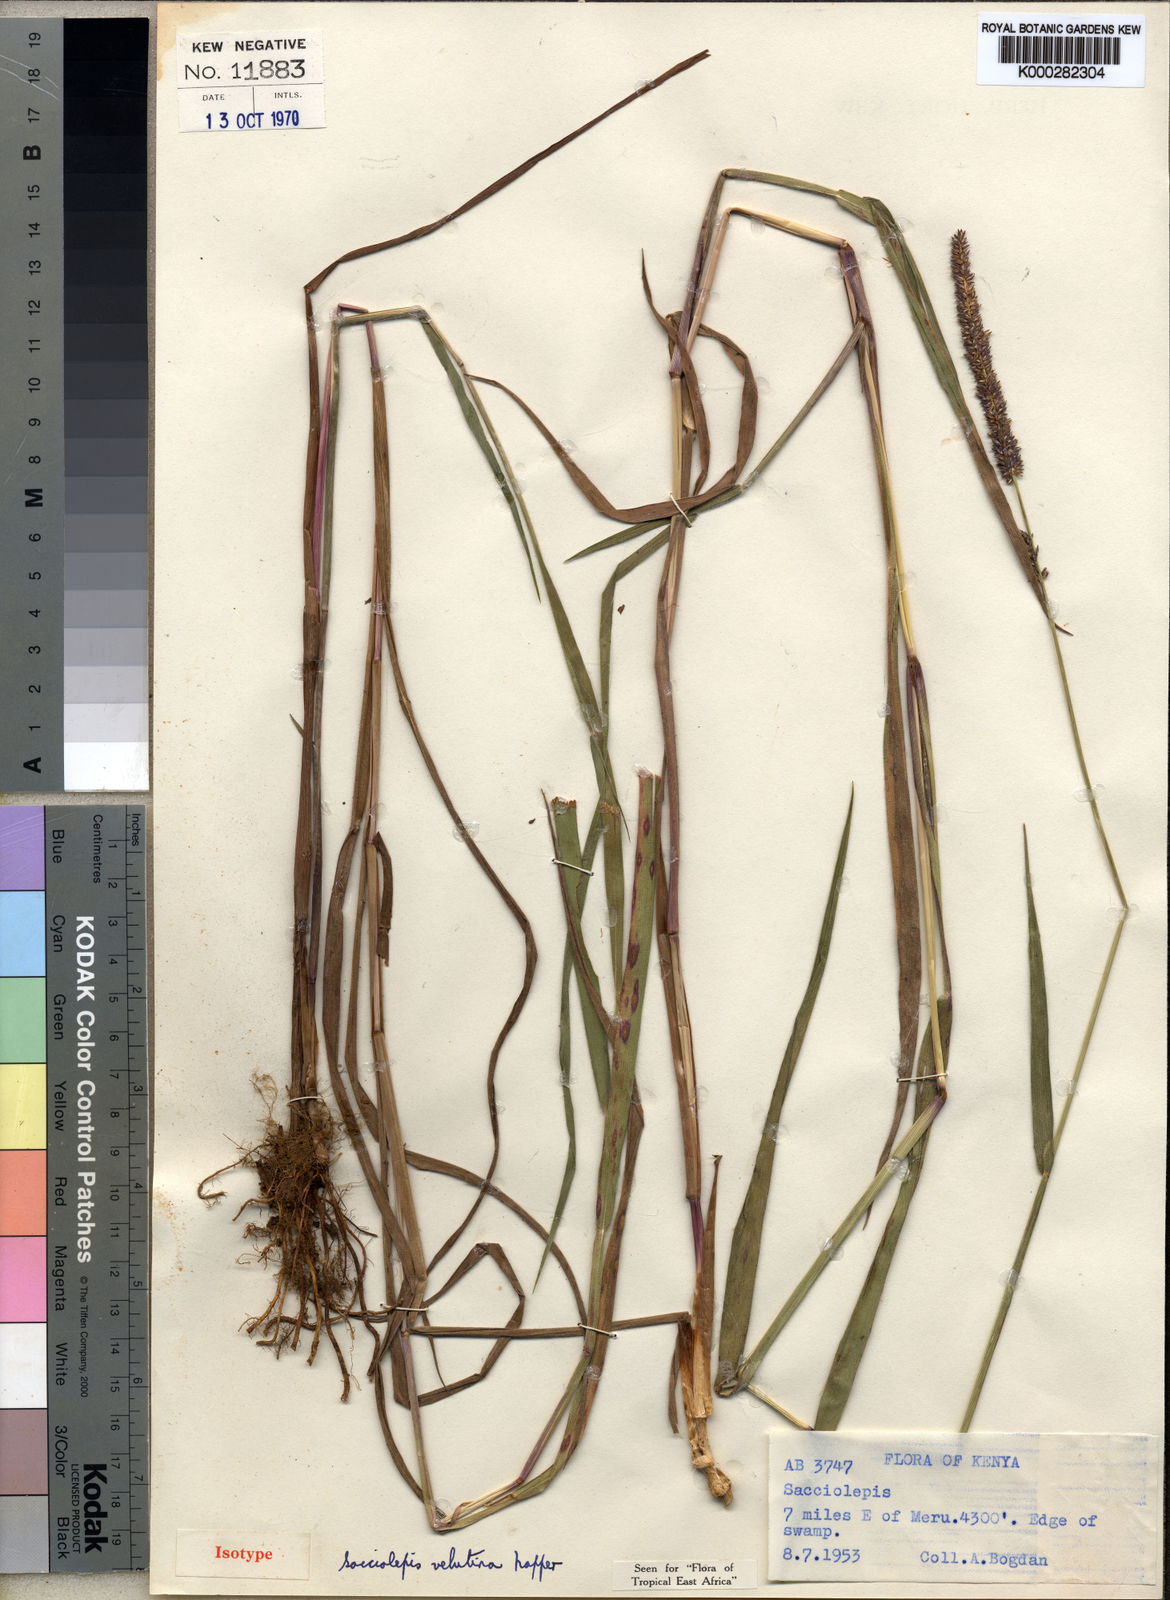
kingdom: Plantae
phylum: Tracheophyta
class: Liliopsida
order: Poales
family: Poaceae
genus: Sacciolepis
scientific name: Sacciolepis typhura
